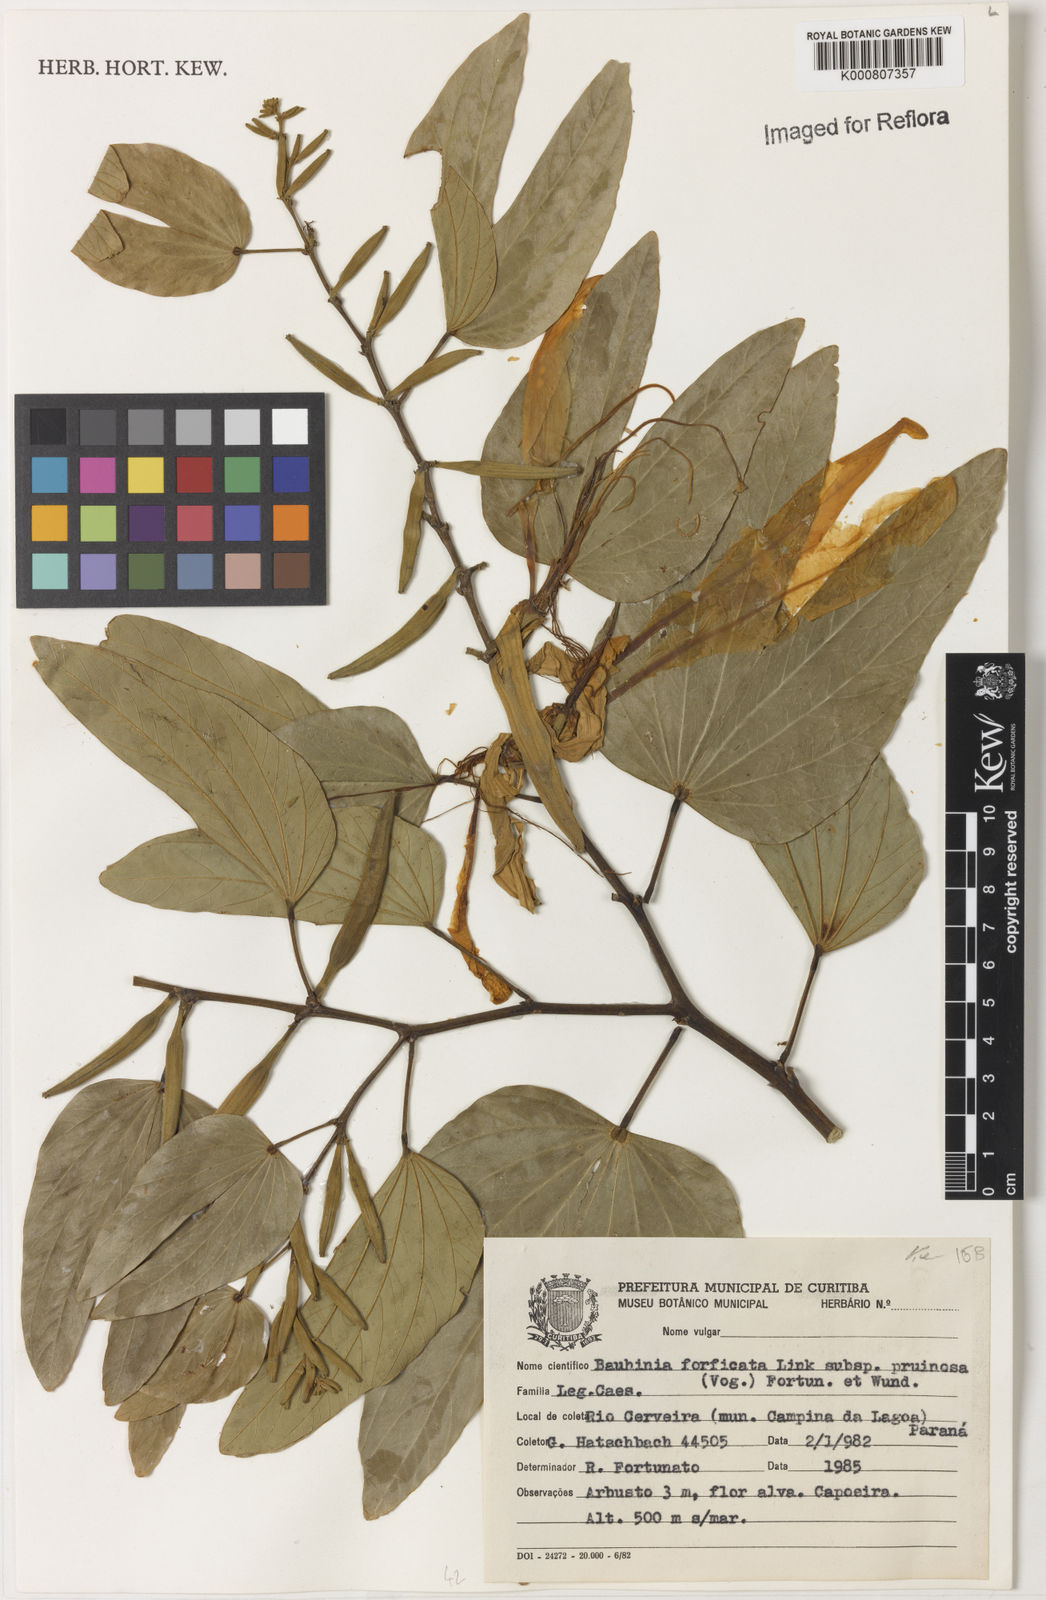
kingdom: Plantae
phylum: Tracheophyta
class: Magnoliopsida
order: Fabales
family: Fabaceae
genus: Bauhinia
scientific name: Bauhinia forficata
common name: Orchid tree
